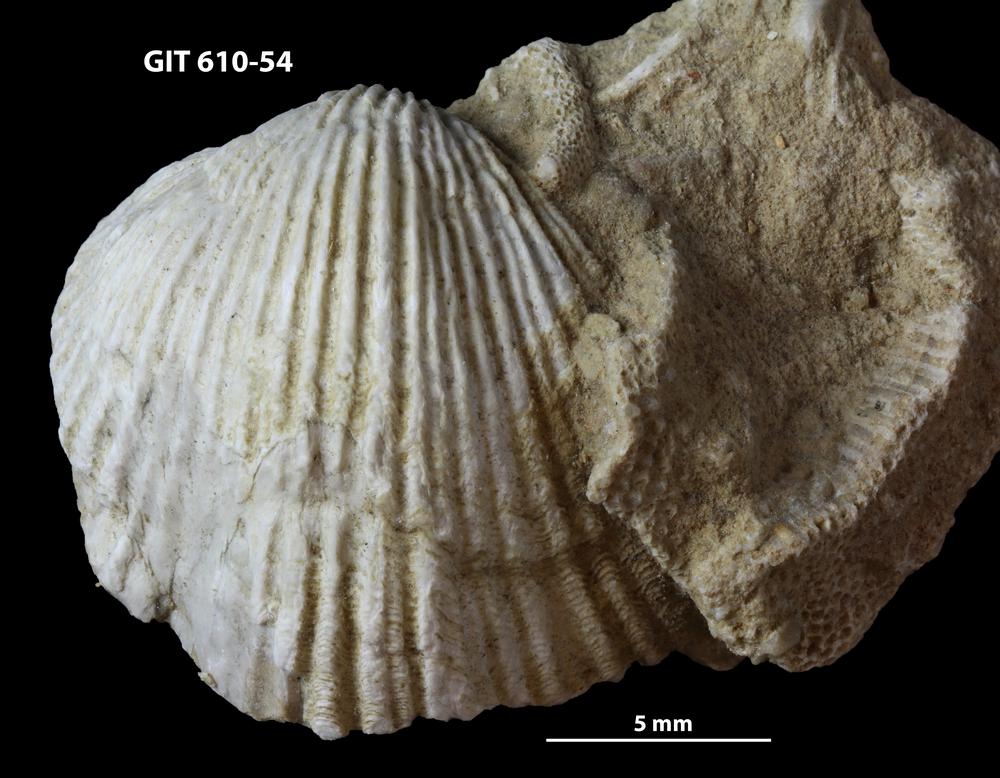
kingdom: Animalia
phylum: Brachiopoda
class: Rhynchonellata
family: Triplesiidae
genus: Cliftonia
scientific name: Cliftonia
